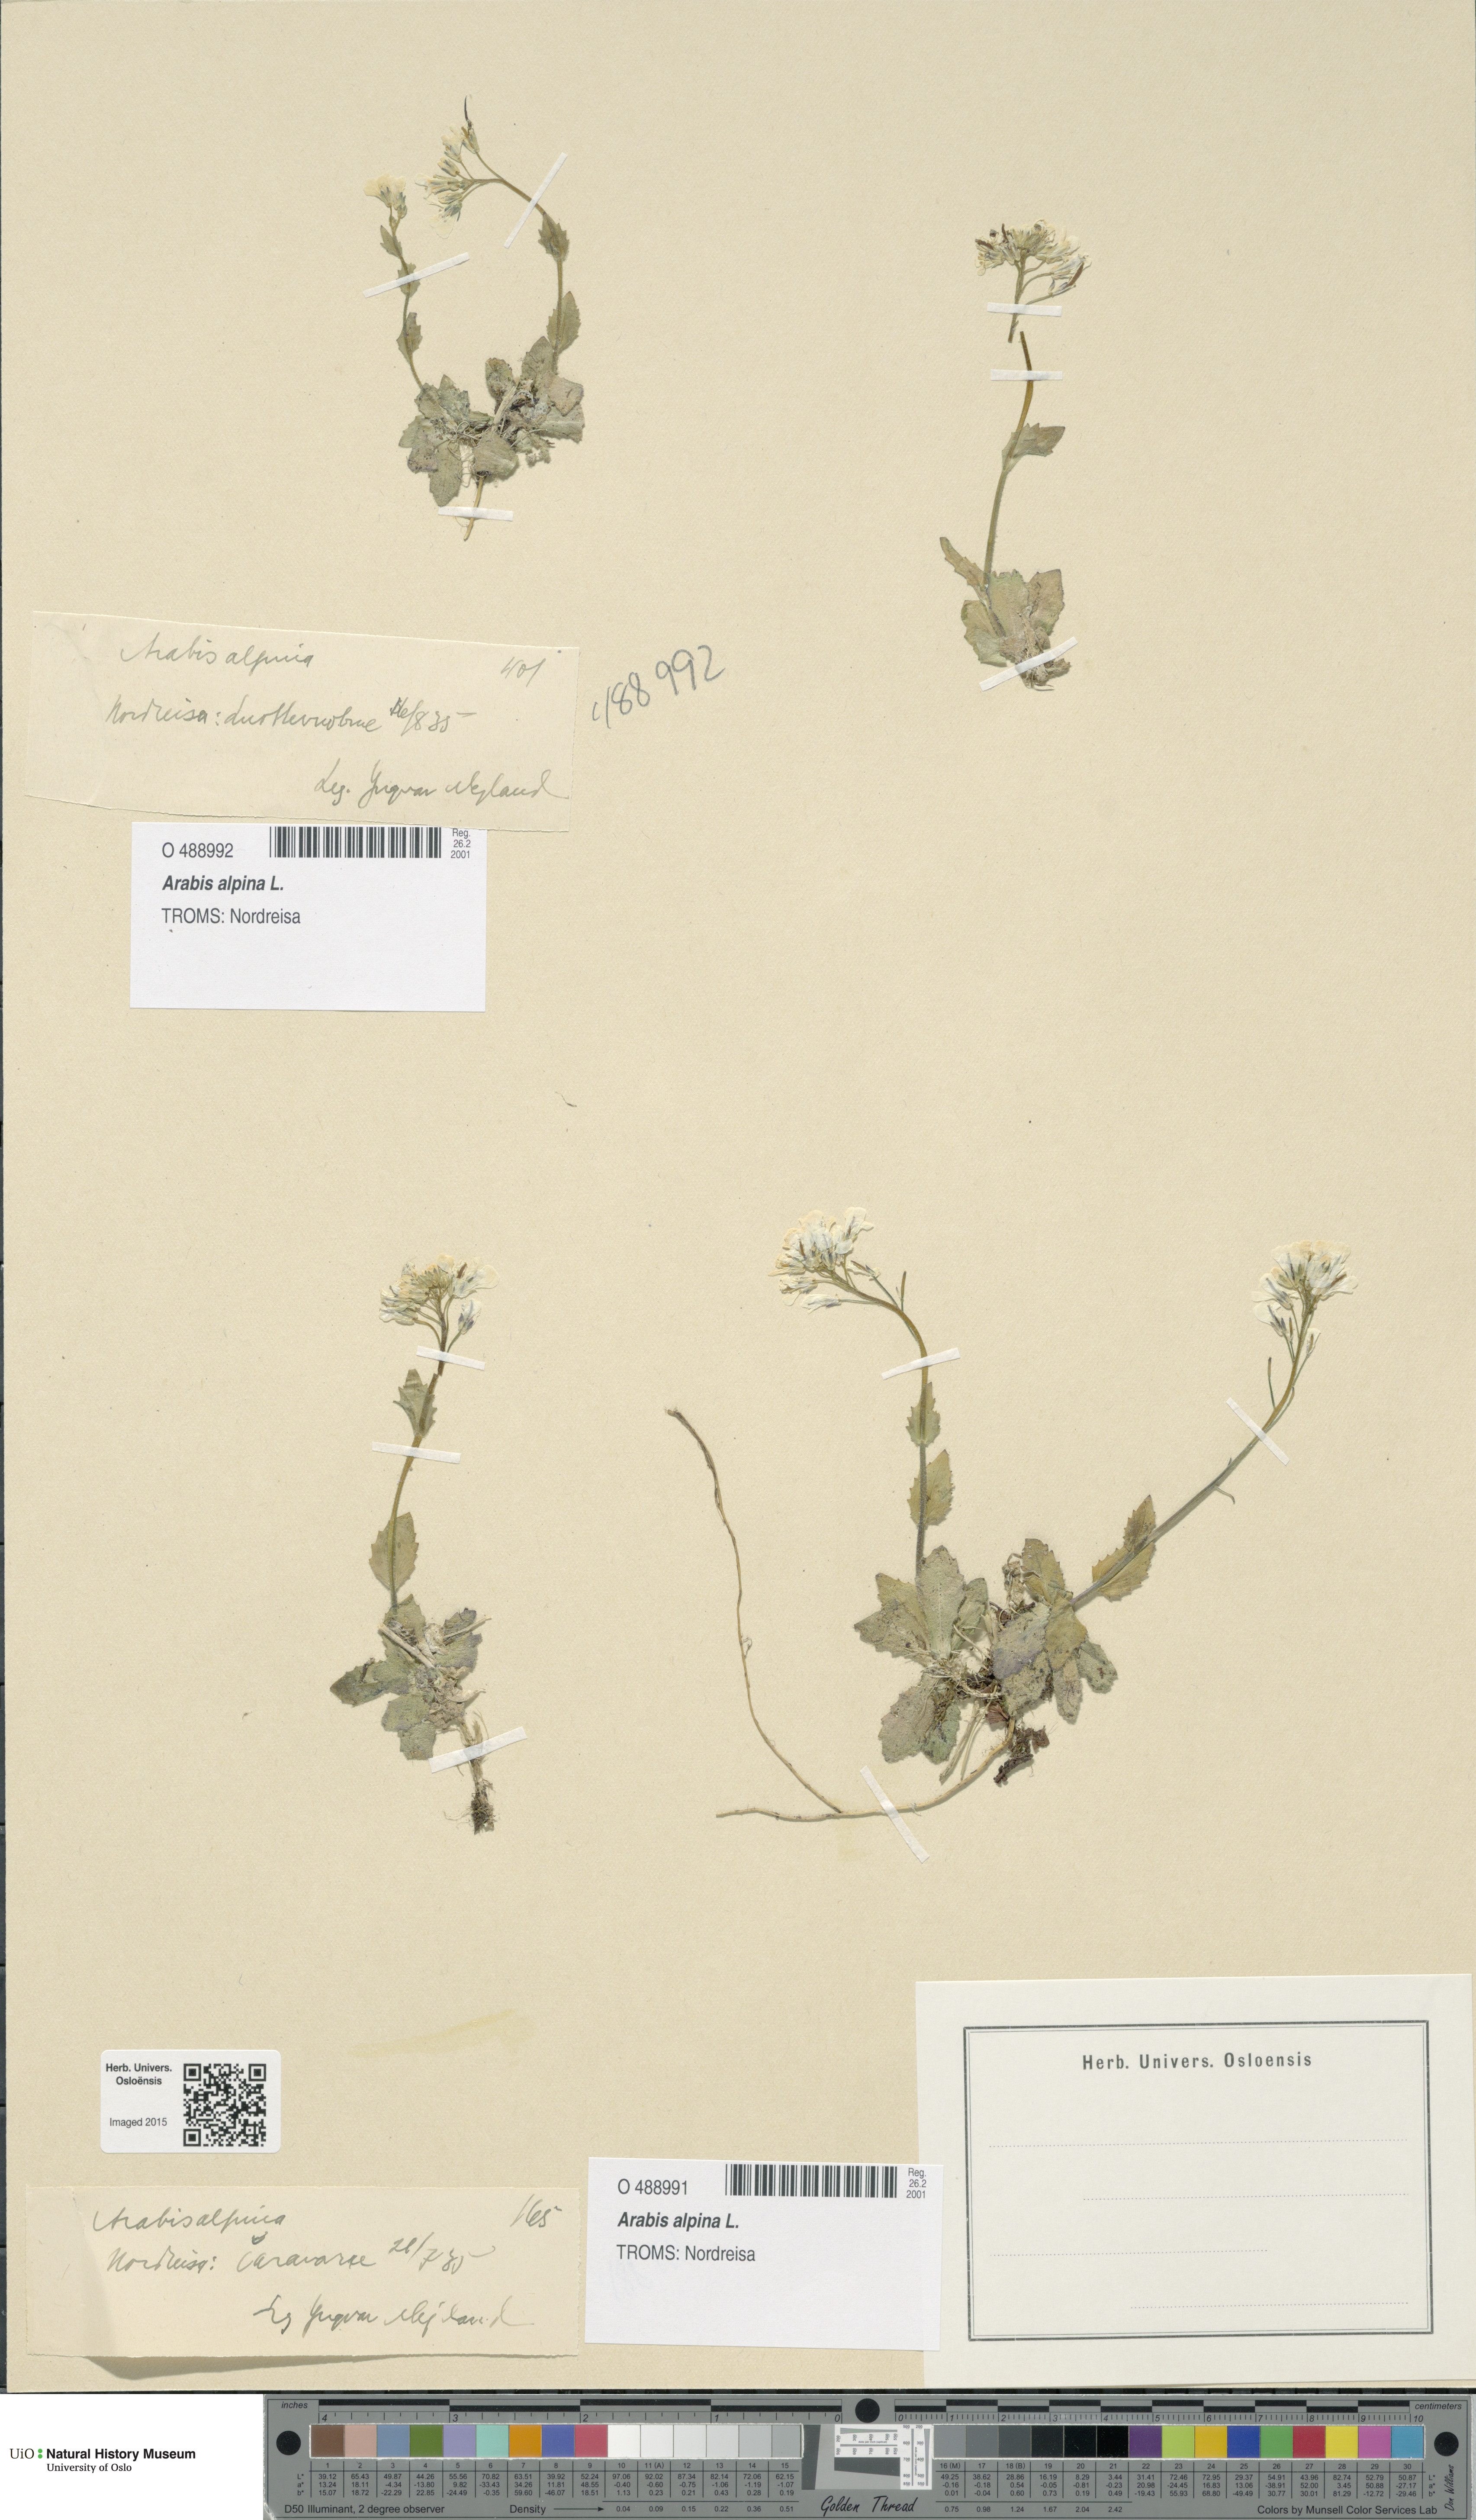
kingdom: Plantae
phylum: Tracheophyta
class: Magnoliopsida
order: Brassicales
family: Brassicaceae
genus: Arabis
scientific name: Arabis alpina
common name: Alpine rock-cress
